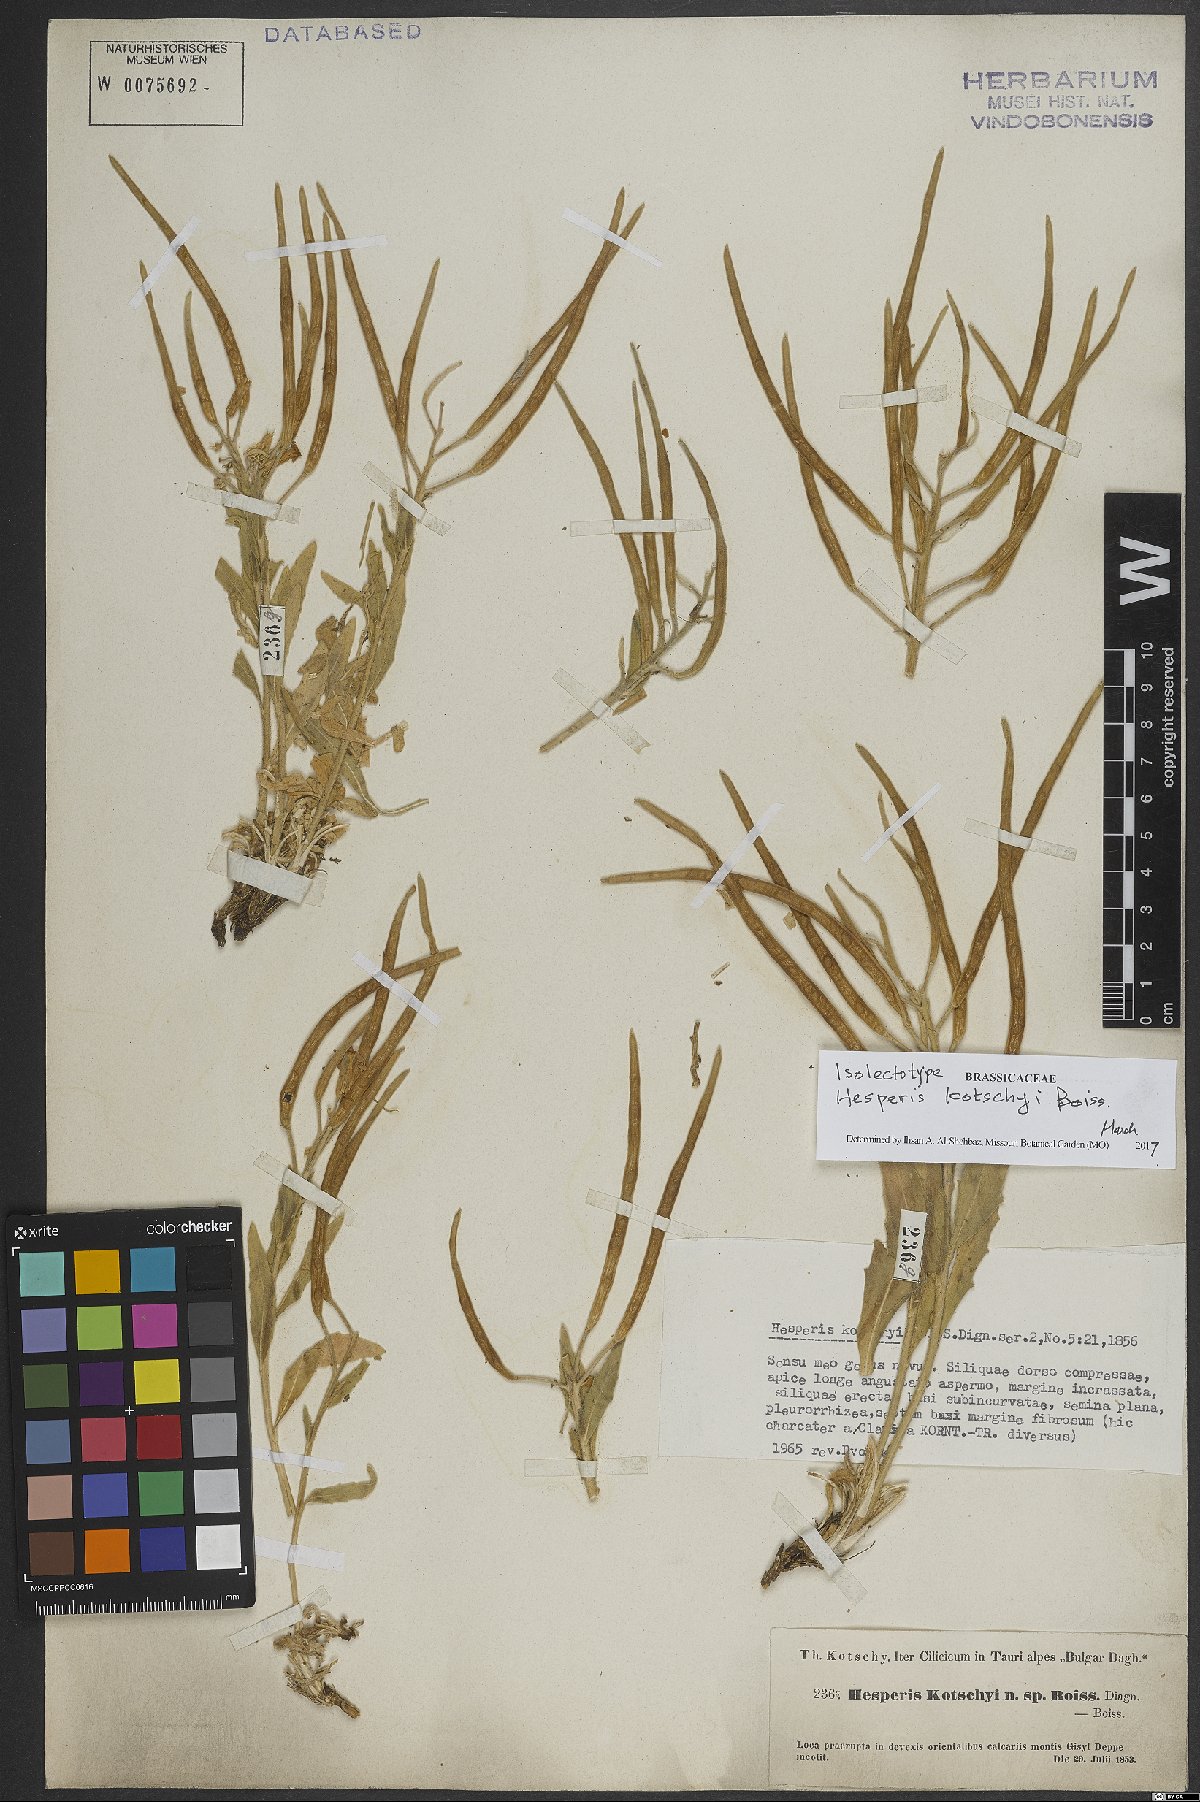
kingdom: Plantae
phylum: Tracheophyta
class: Magnoliopsida
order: Brassicales
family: Brassicaceae
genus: Hesperis
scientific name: Hesperis kotschyi
